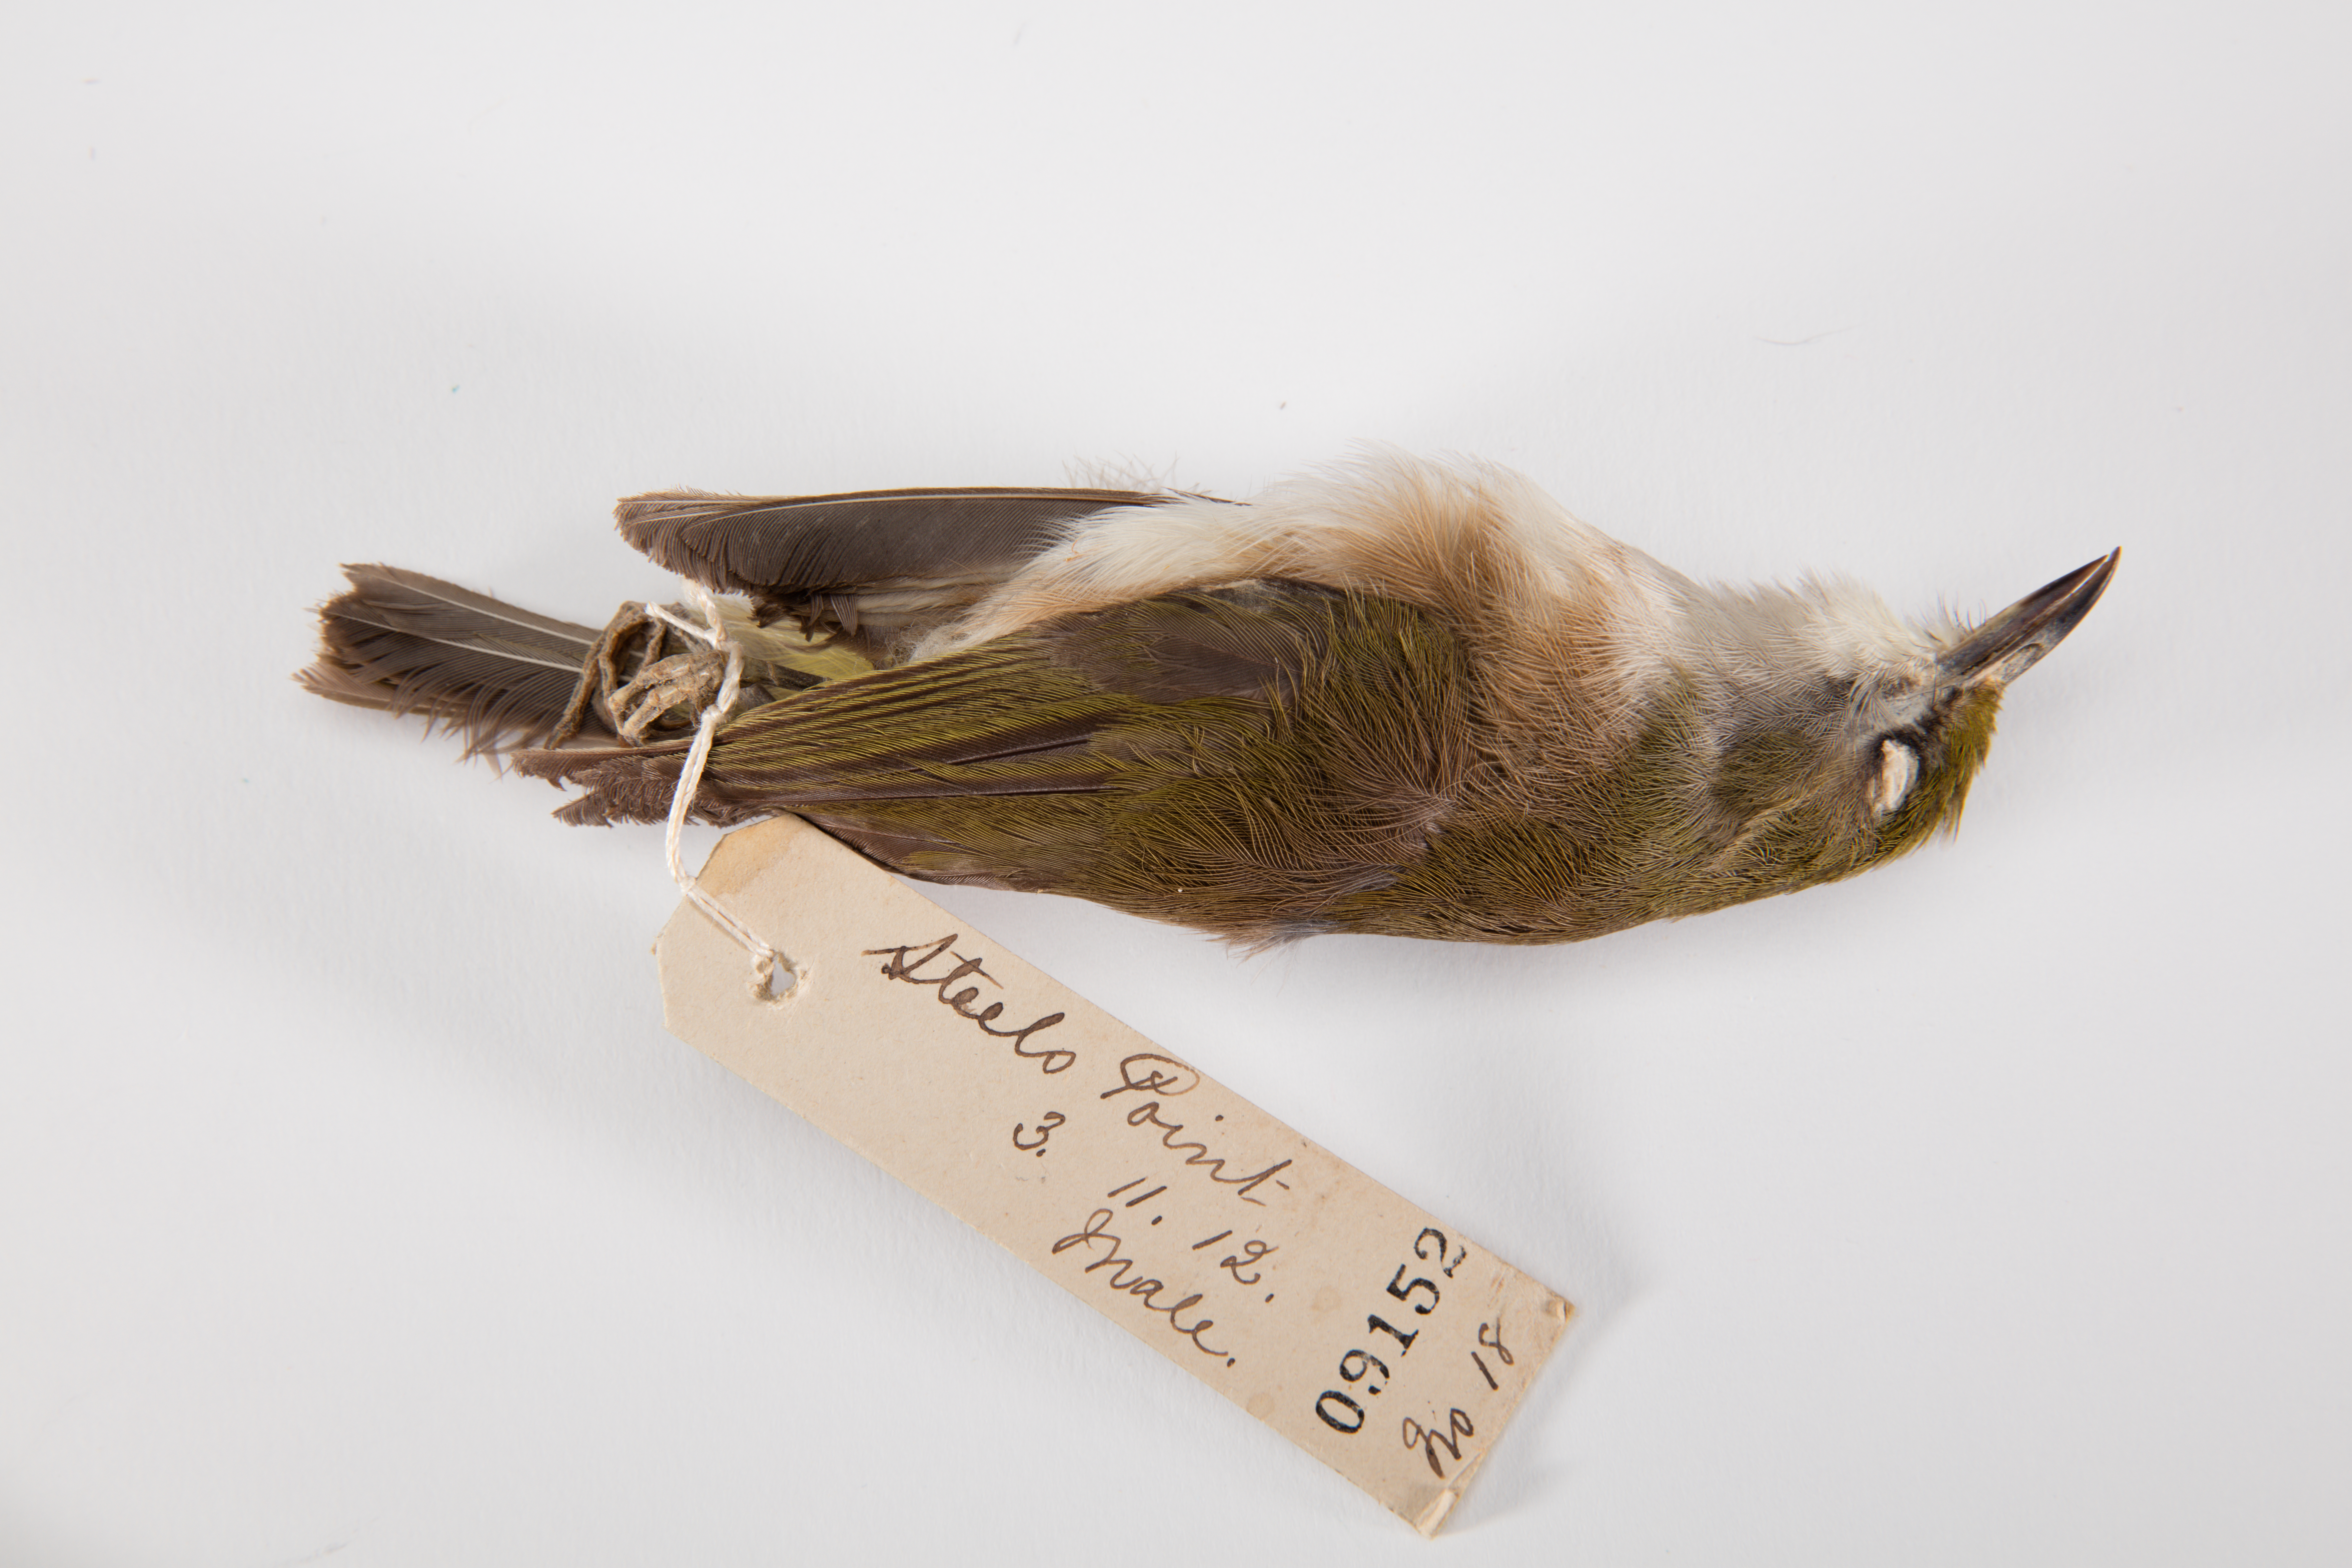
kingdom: Animalia
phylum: Chordata
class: Aves
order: Passeriformes
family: Zosteropidae
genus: Zosterops
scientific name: Zosterops albogularis
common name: White-chested white-eye
